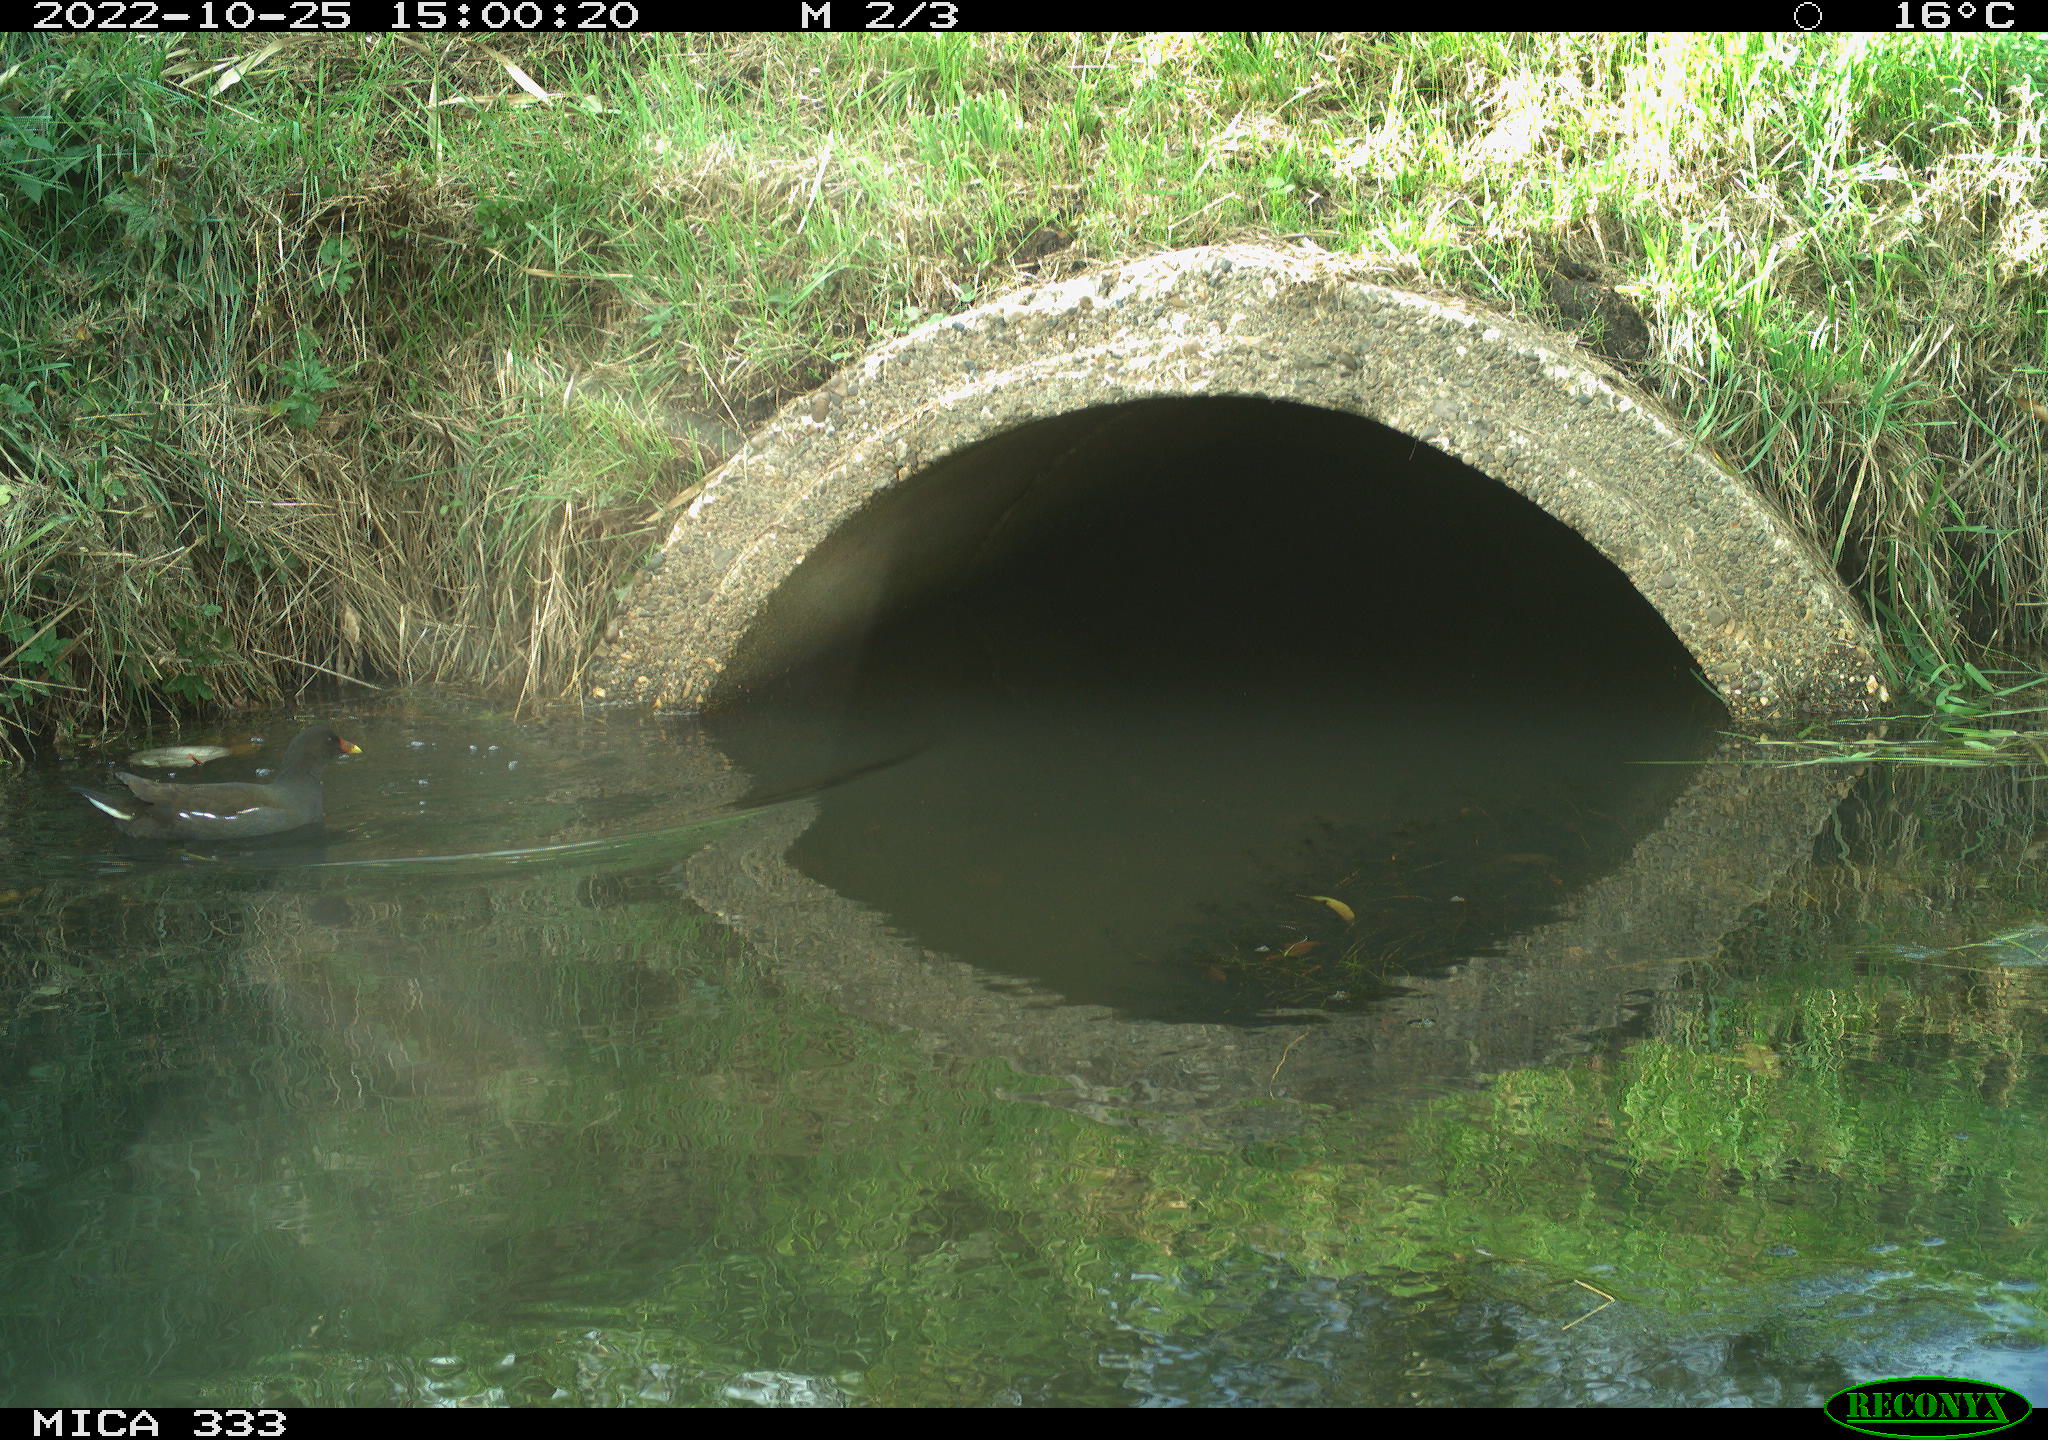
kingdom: Animalia
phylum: Chordata
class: Aves
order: Gruiformes
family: Rallidae
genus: Gallinula
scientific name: Gallinula chloropus
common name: Common moorhen
